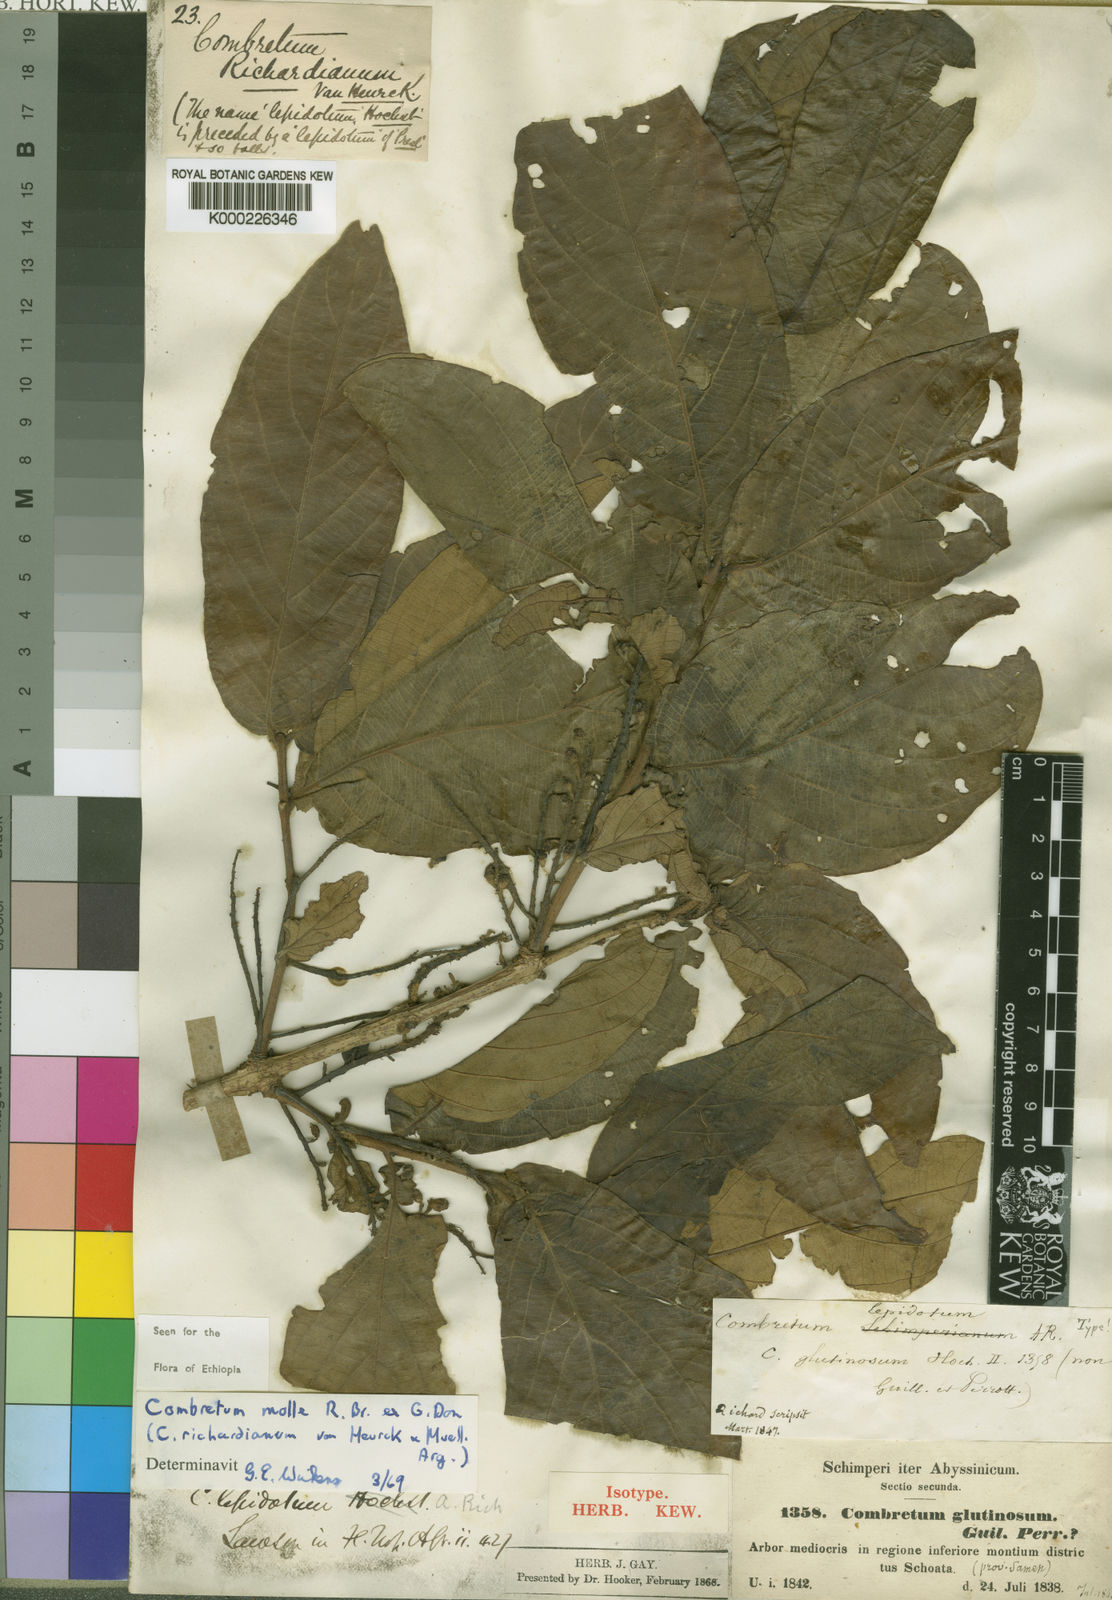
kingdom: Plantae
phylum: Tracheophyta
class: Magnoliopsida
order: Myrtales
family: Combretaceae
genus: Combretum
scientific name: Combretum molle
